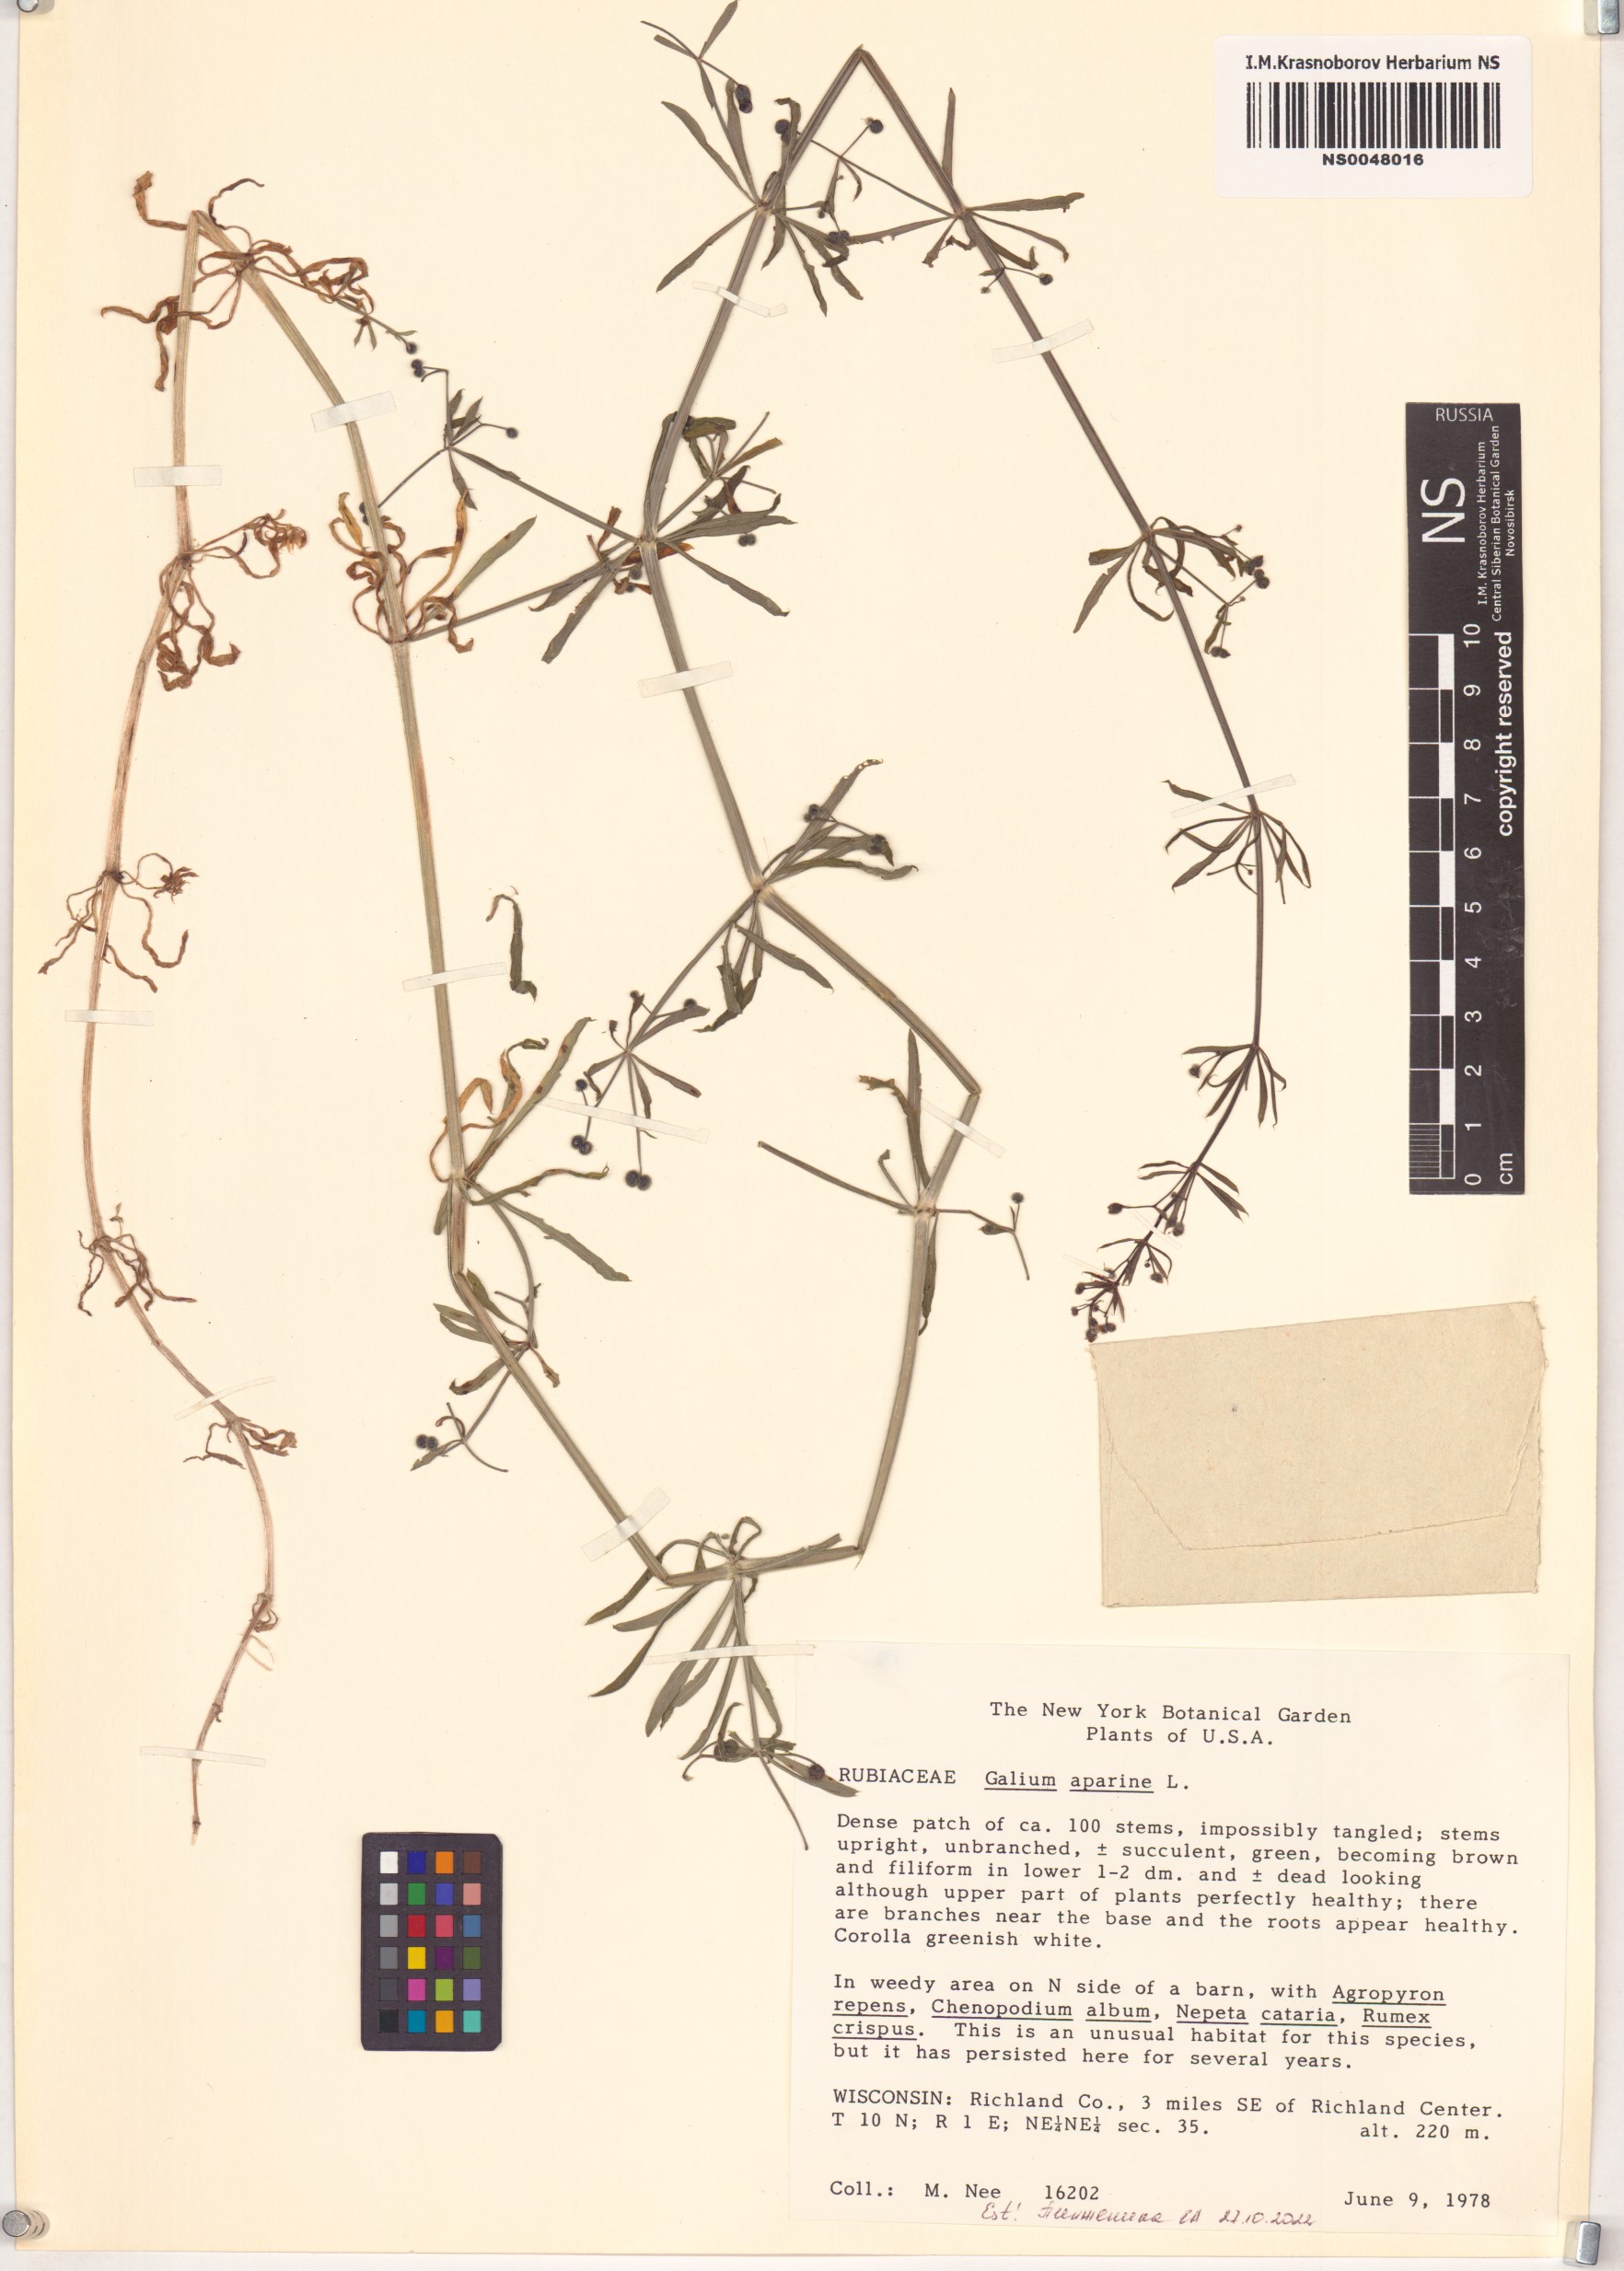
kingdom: Plantae
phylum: Tracheophyta
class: Magnoliopsida
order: Gentianales
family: Rubiaceae
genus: Galium
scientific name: Galium aparine
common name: Cleavers
